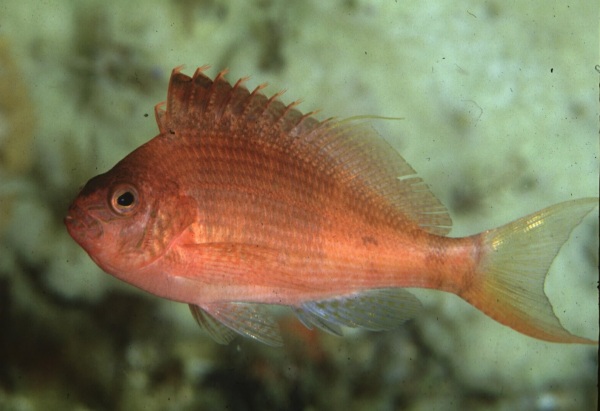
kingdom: Animalia
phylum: Chordata
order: Perciformes
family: Cirrhitidae
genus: Cyprinocirrhites
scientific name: Cyprinocirrhites polyactis
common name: Swallowtail hawkfish
